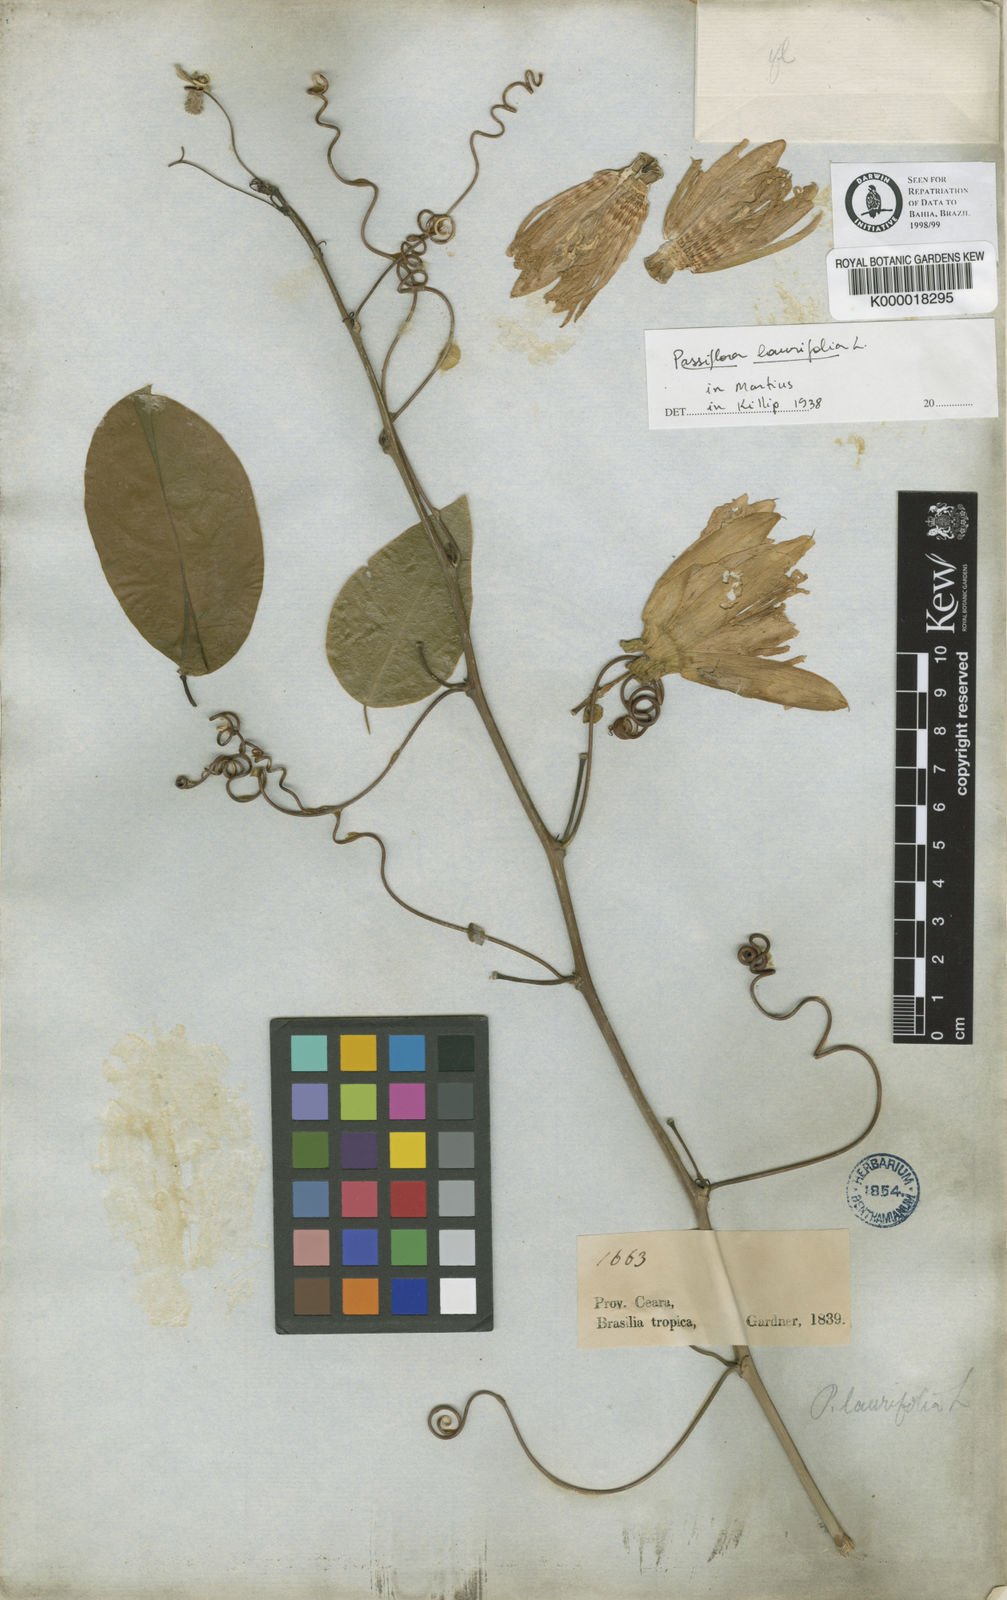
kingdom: Plantae
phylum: Tracheophyta
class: Magnoliopsida
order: Malpighiales
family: Passifloraceae
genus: Passiflora
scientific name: Passiflora laurifolia
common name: Bell apple
